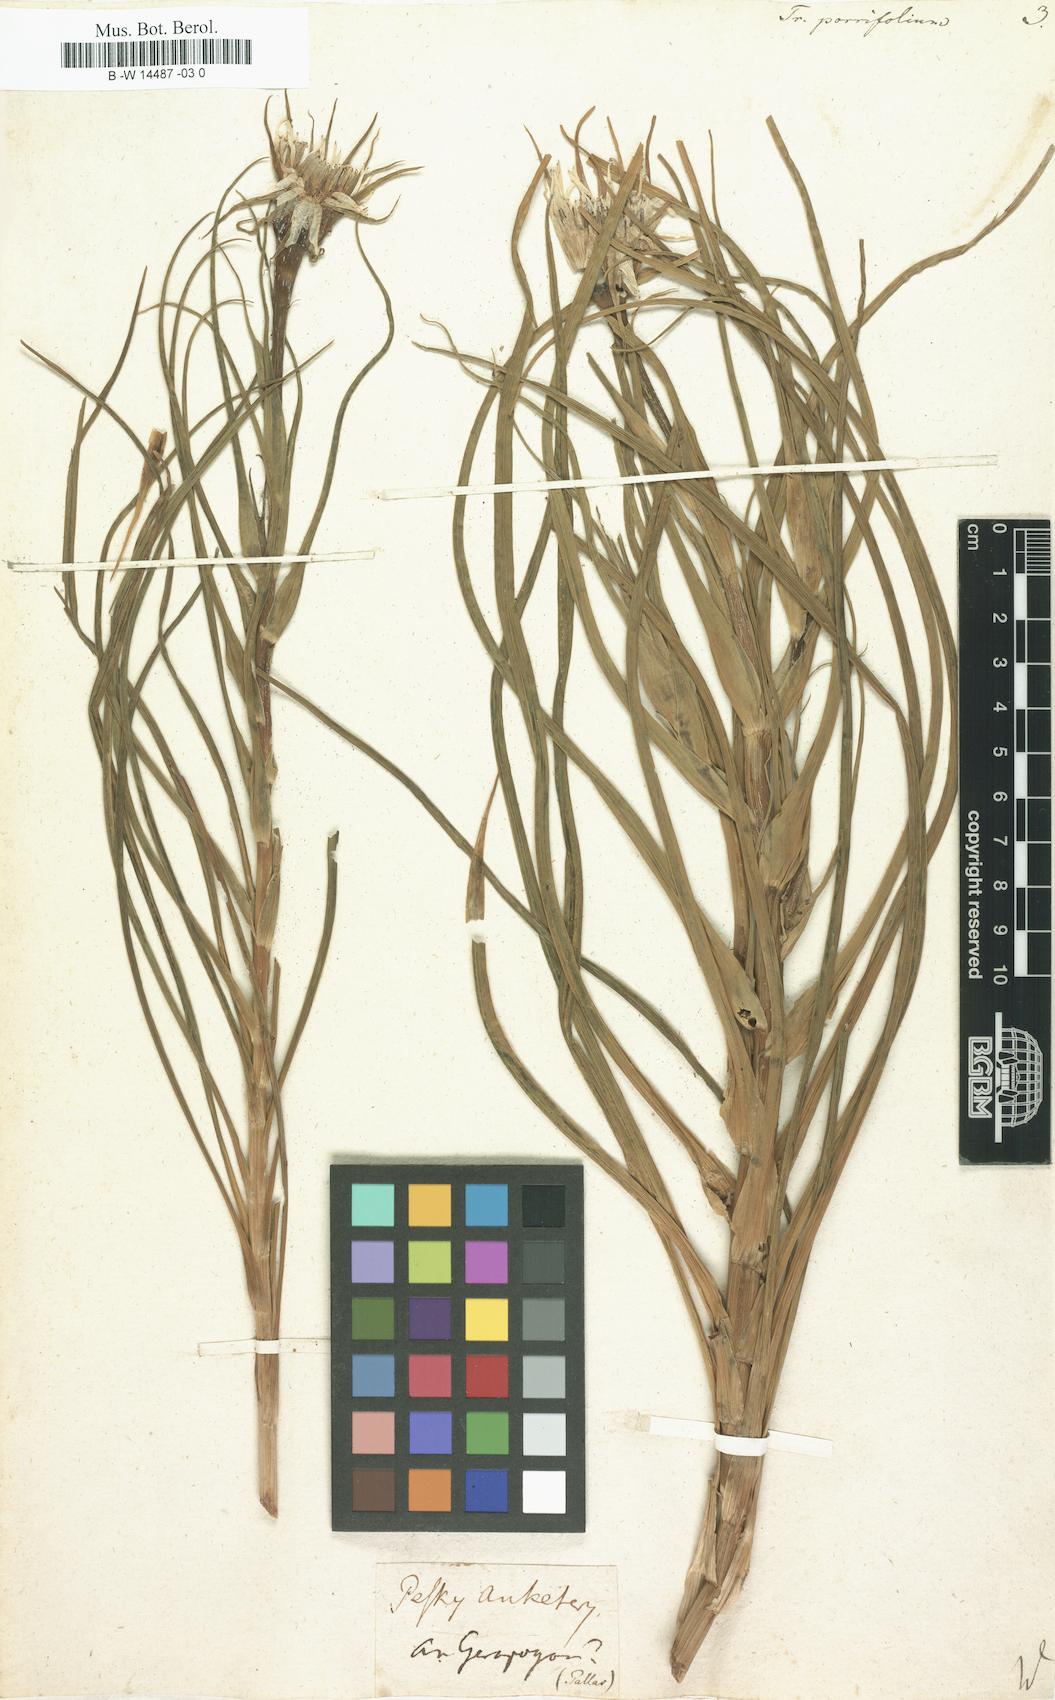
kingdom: Plantae
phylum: Tracheophyta
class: Magnoliopsida
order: Asterales
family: Asteraceae
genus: Tragopogon
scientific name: Tragopogon porrifolius
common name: Salsify
